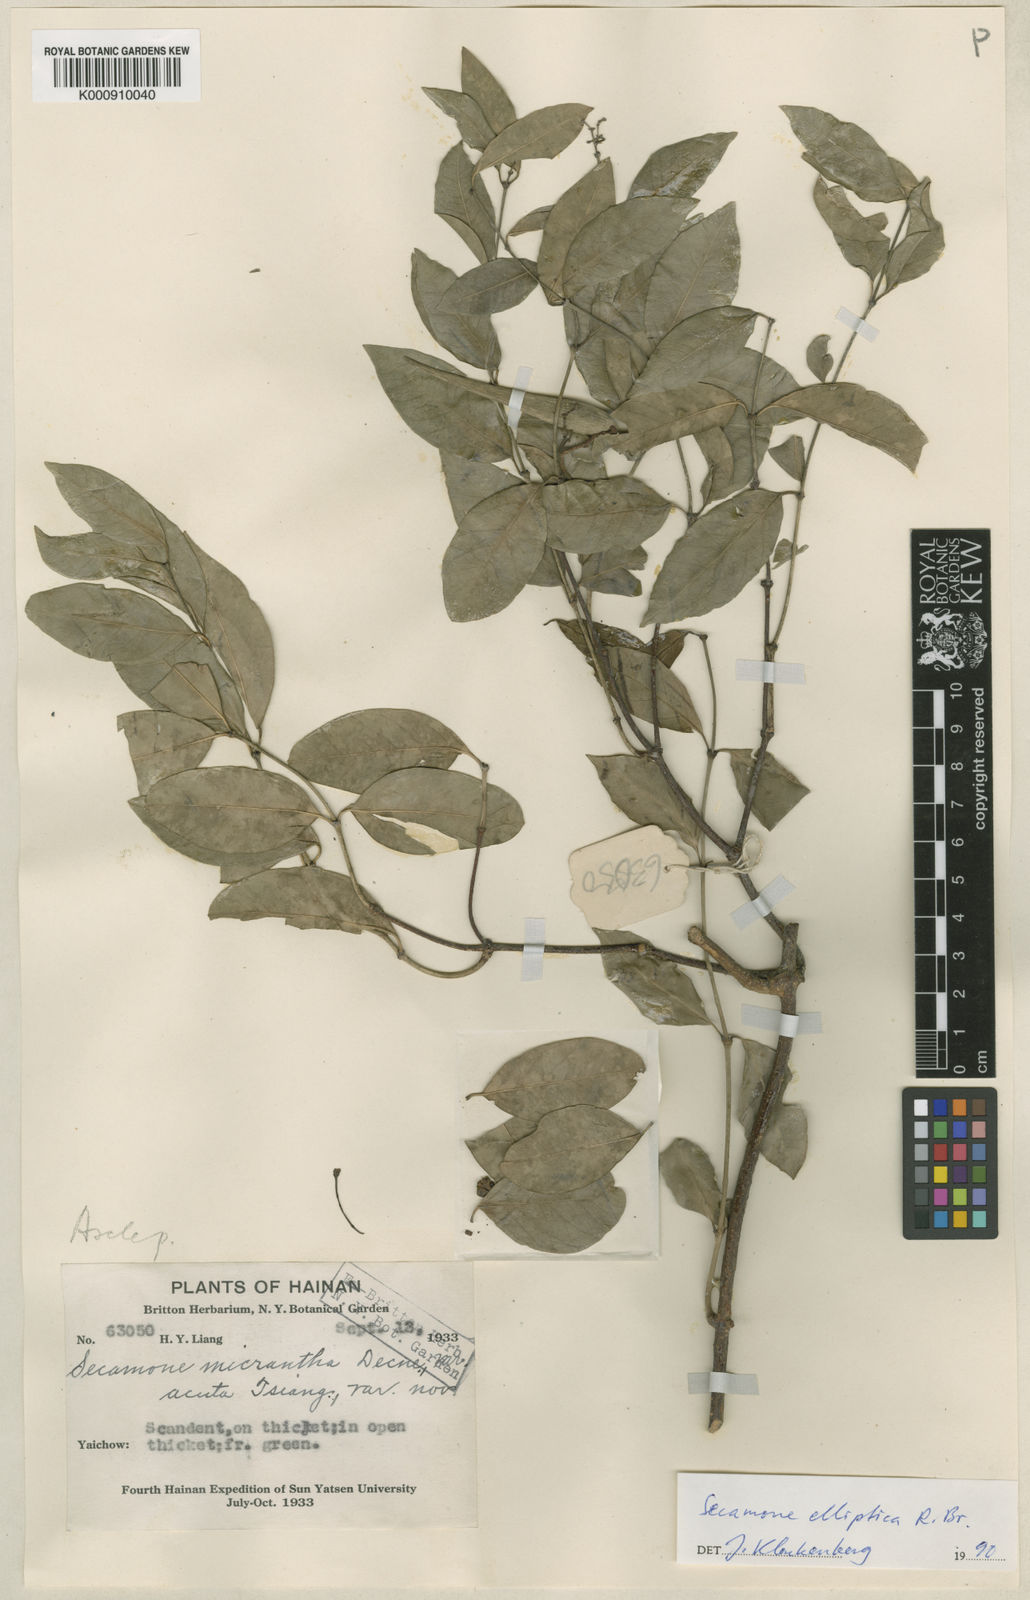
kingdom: Plantae
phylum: Tracheophyta
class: Magnoliopsida
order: Gentianales
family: Apocynaceae
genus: Secamone
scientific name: Secamone elliptica
